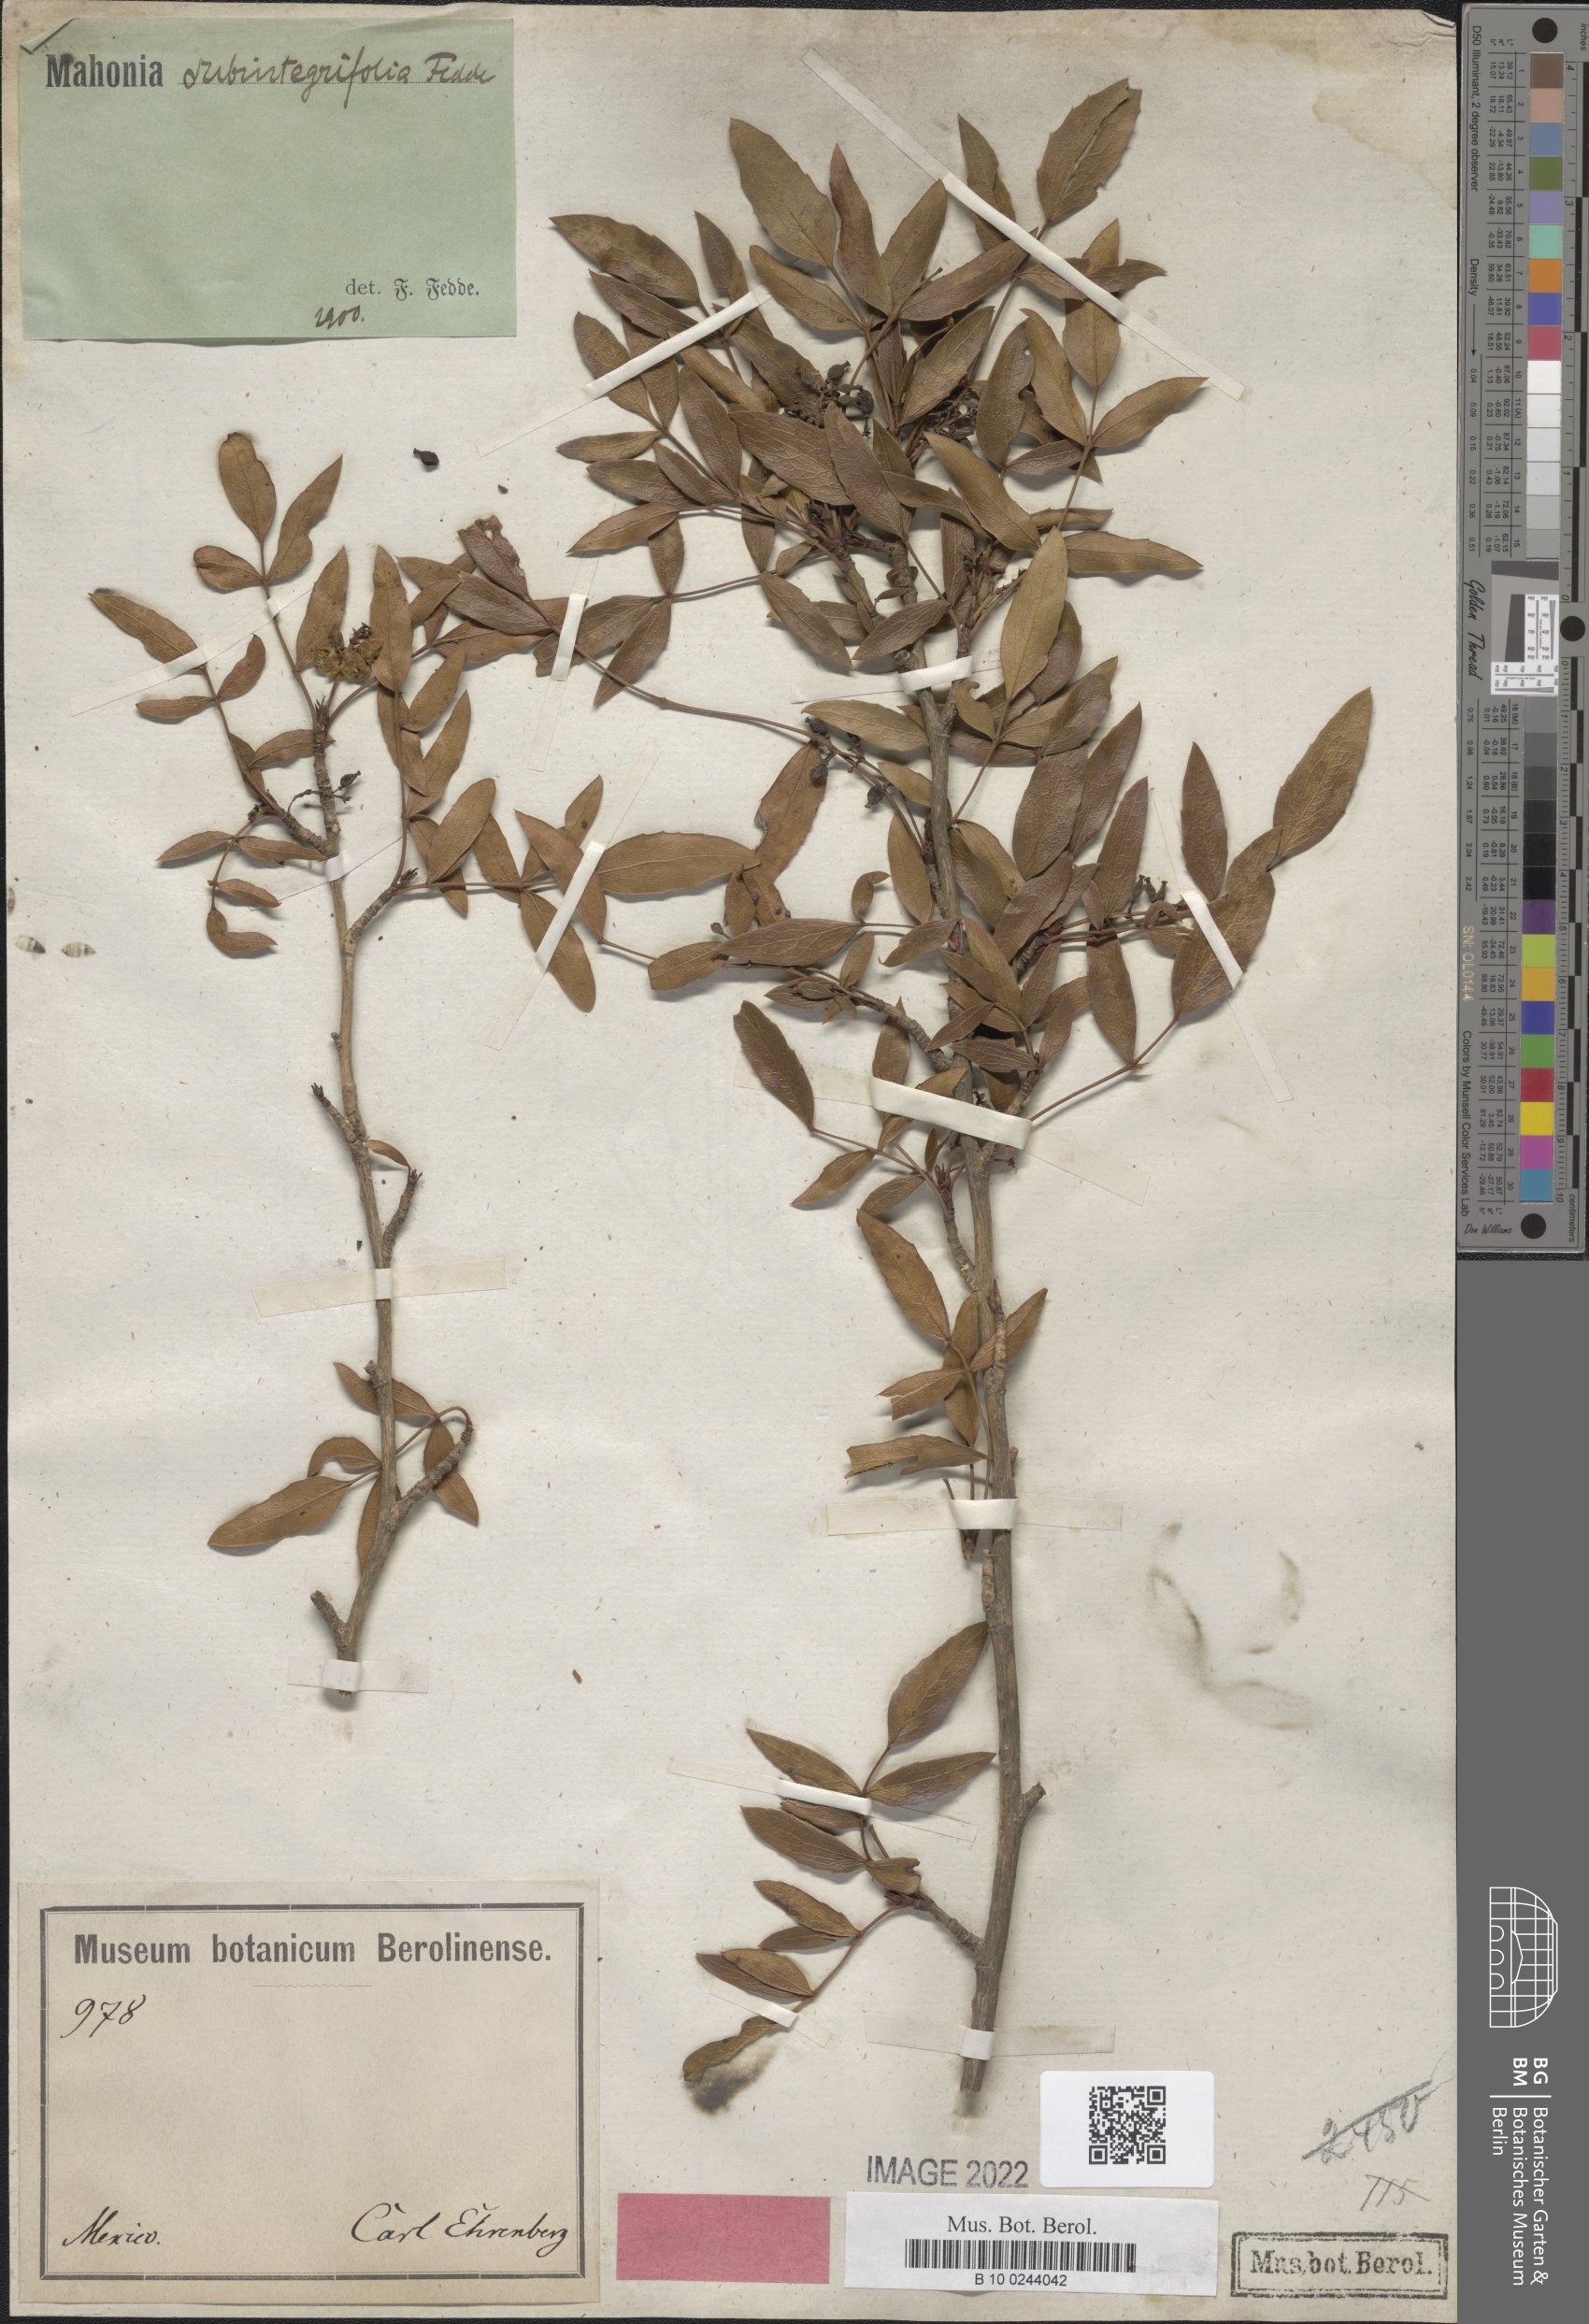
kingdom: Plantae
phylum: Tracheophyta
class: Magnoliopsida
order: Ranunculales
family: Berberidaceae
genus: Mahonia
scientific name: Mahonia gracilis
